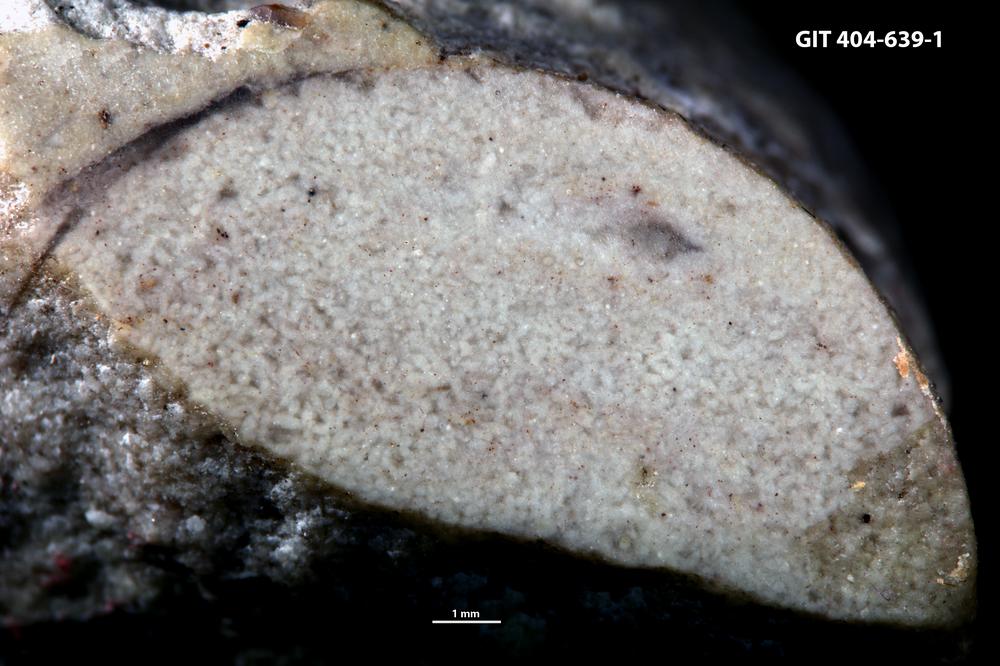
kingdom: Animalia
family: Coprulidae
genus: Coprulus
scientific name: Coprulus
